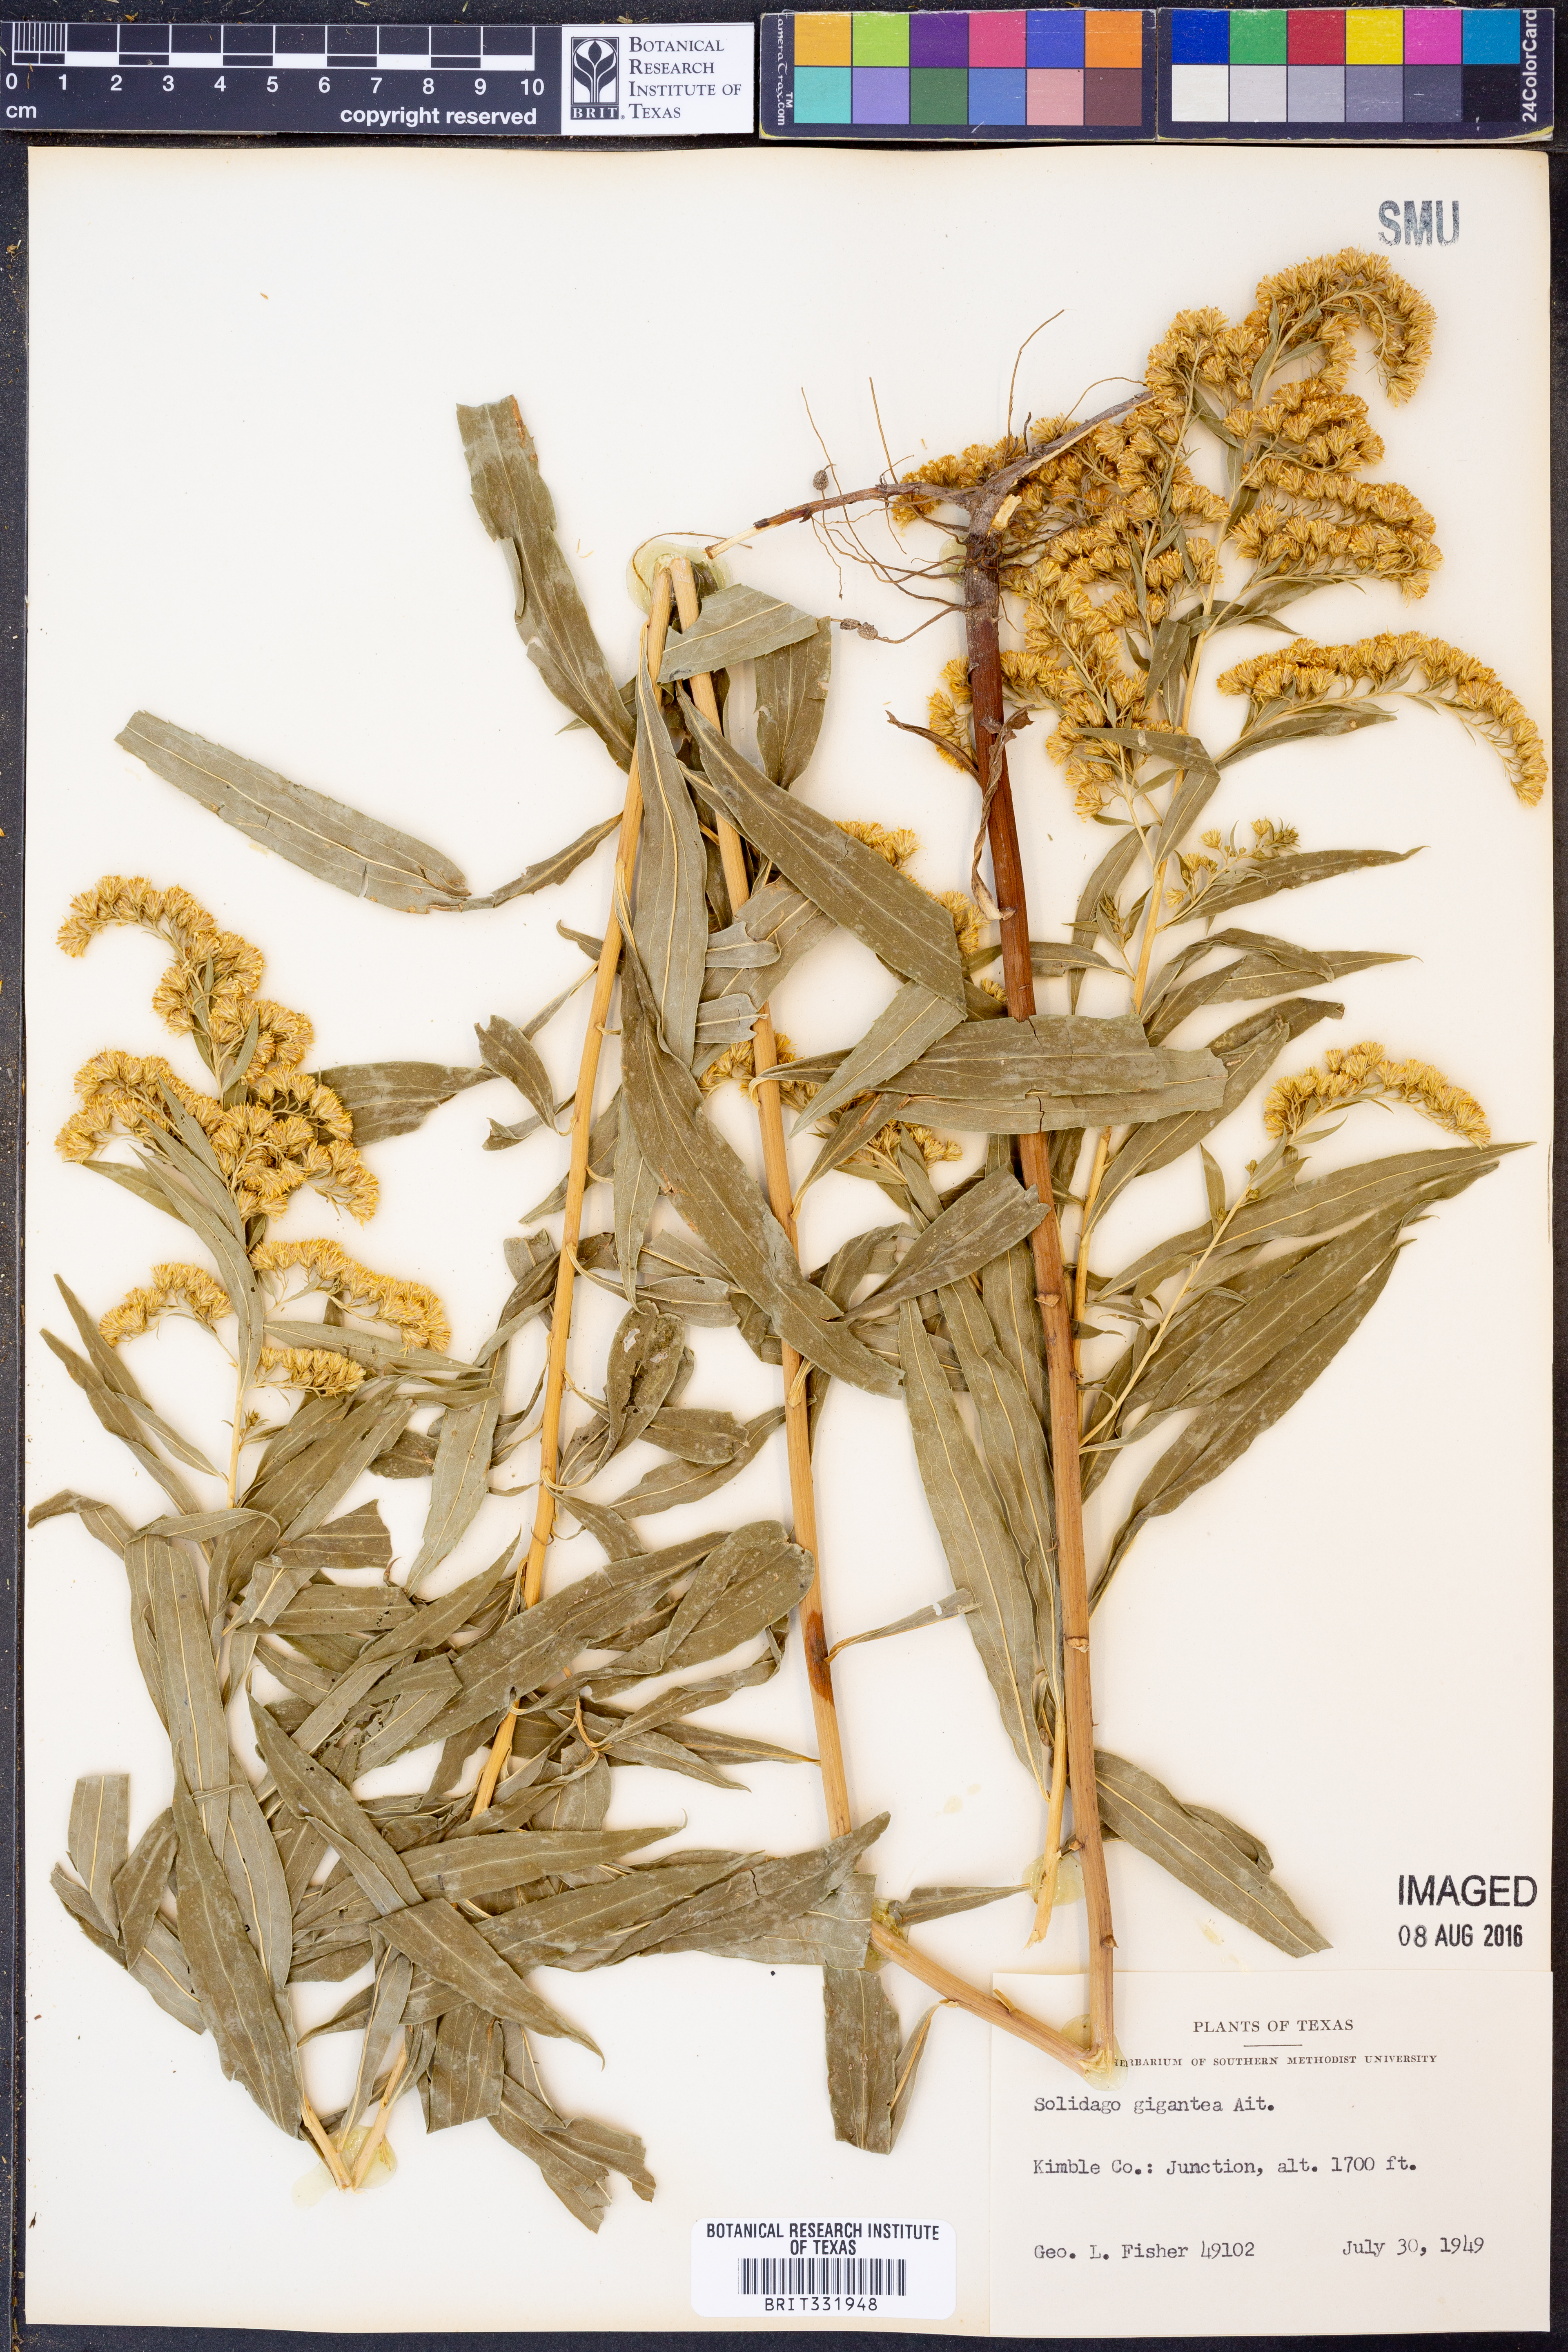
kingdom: Plantae
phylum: Tracheophyta
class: Magnoliopsida
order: Asterales
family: Asteraceae
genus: Solidago
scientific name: Solidago gigantea
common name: Giant goldenrod
